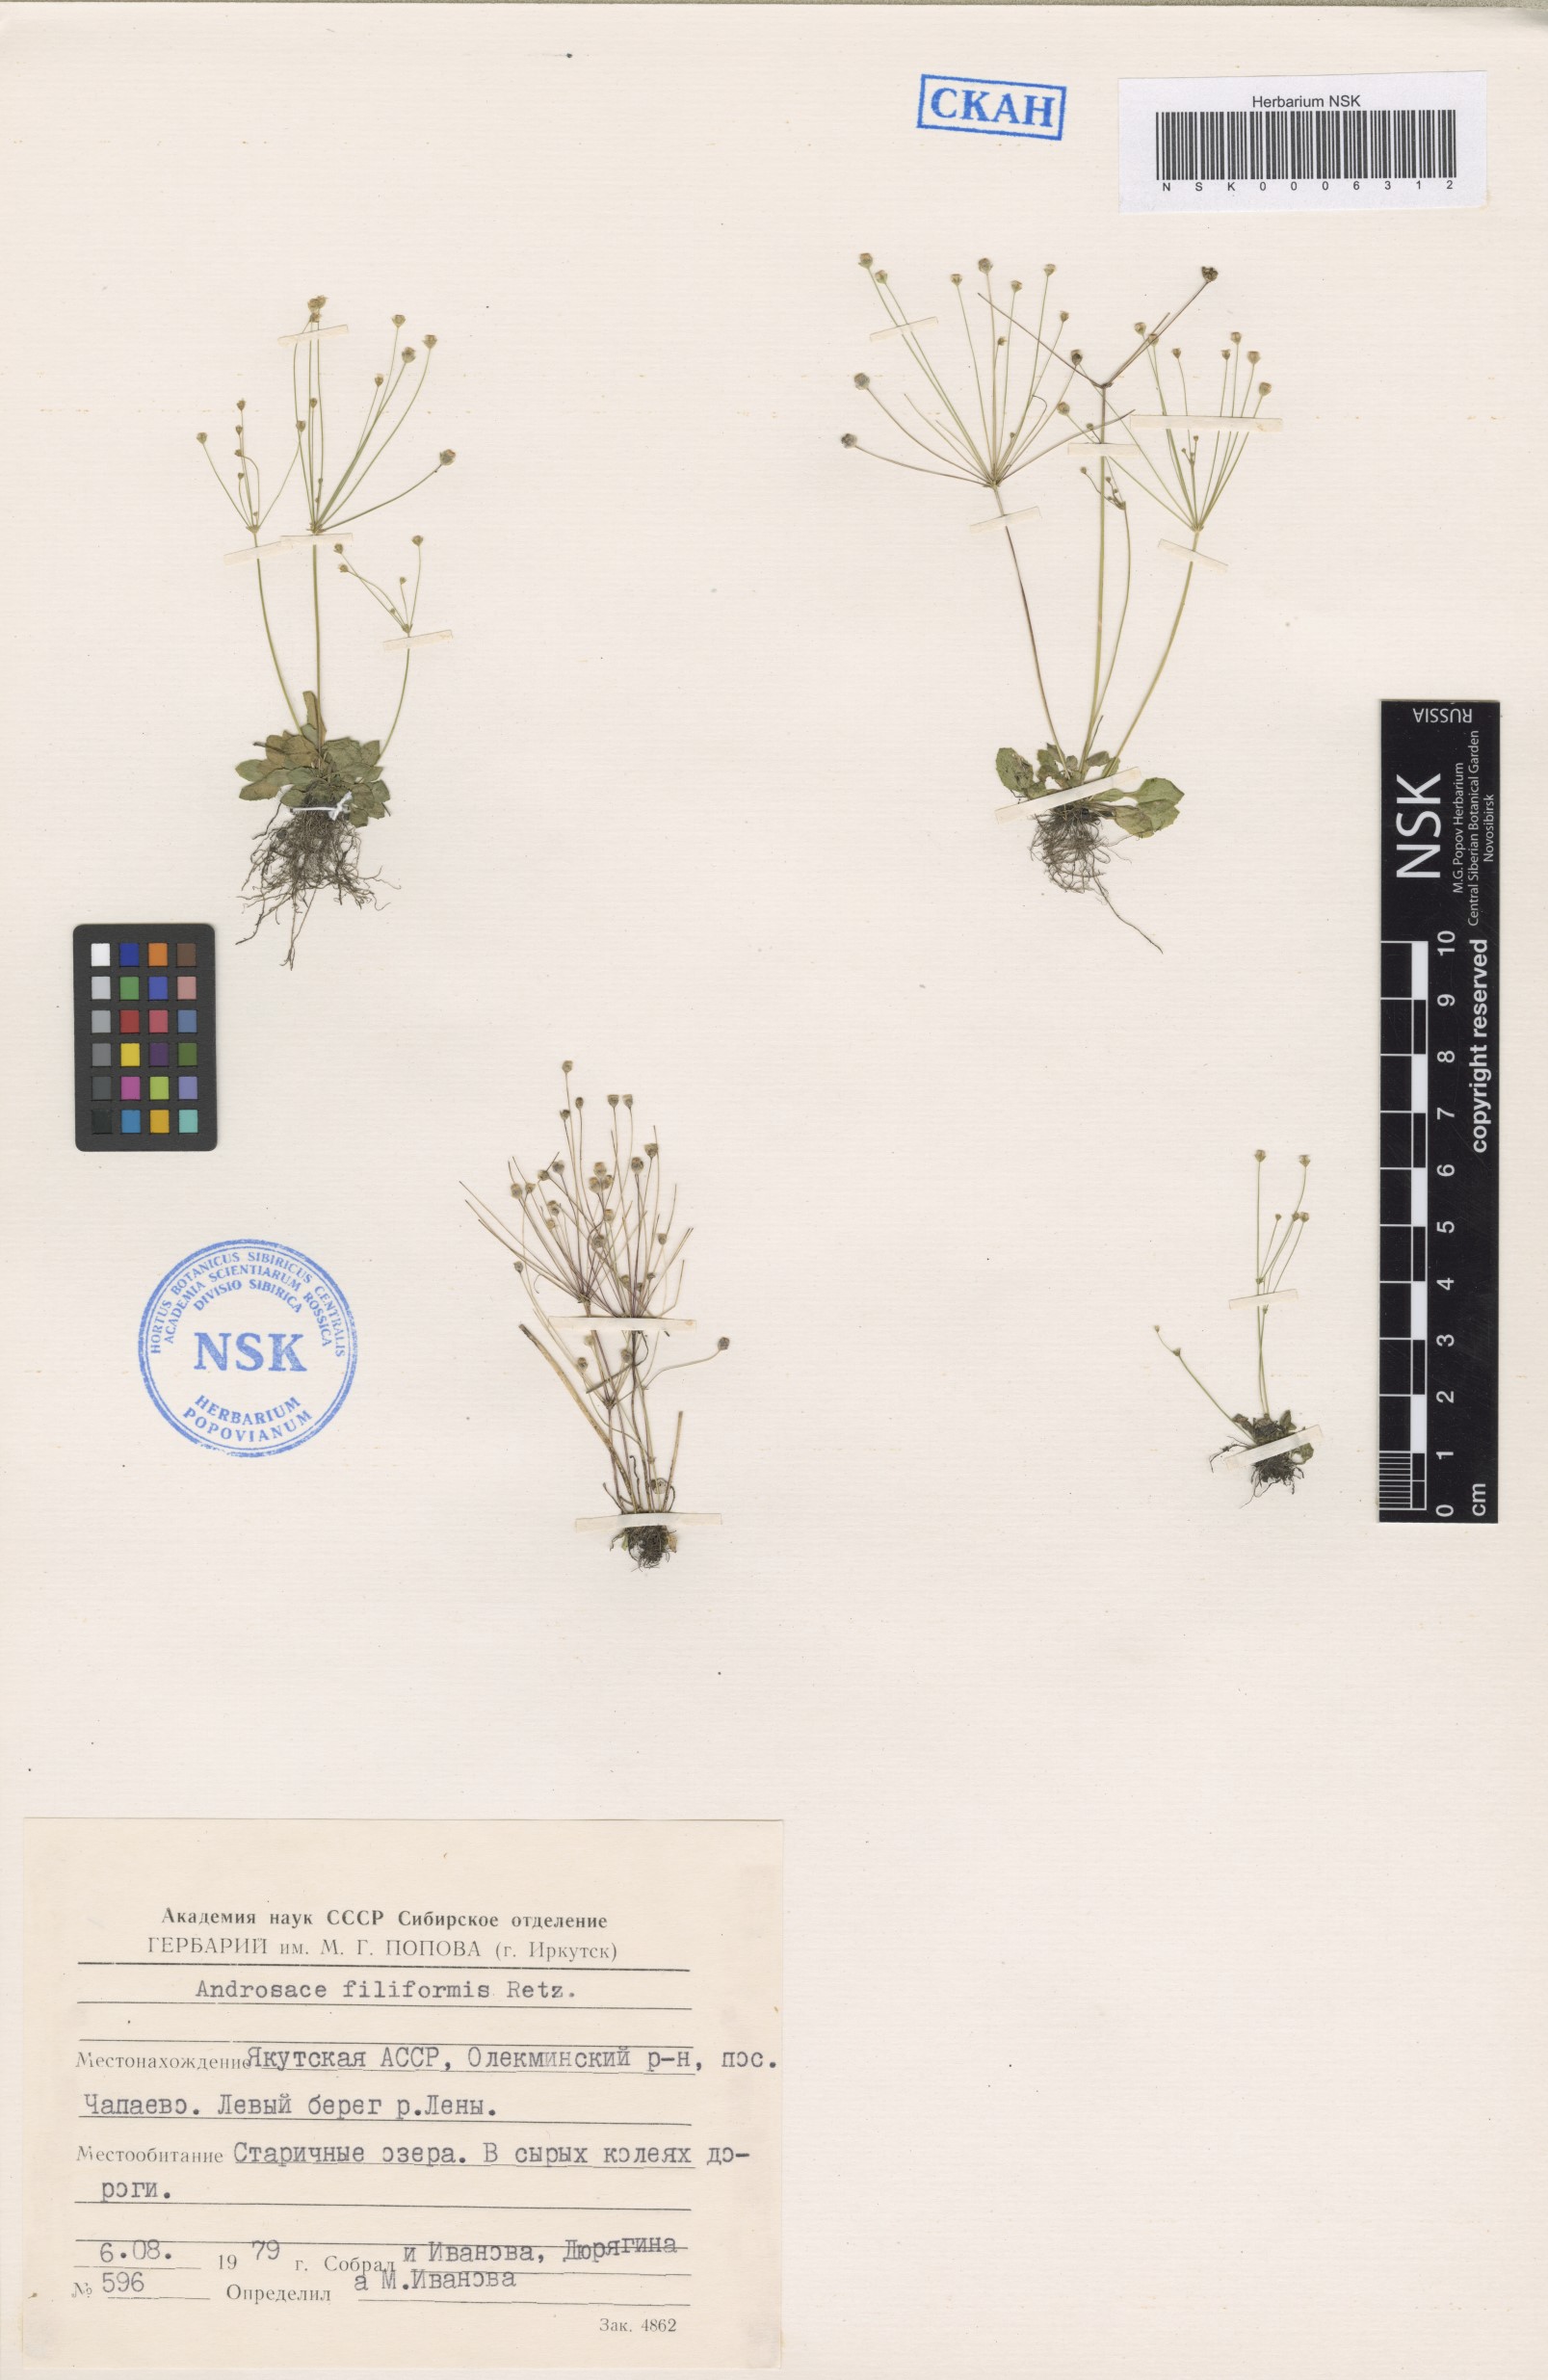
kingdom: Plantae
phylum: Tracheophyta
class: Magnoliopsida
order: Ericales
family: Primulaceae
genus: Androsace
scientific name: Androsace filiformis
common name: Filiform rock jasmine
